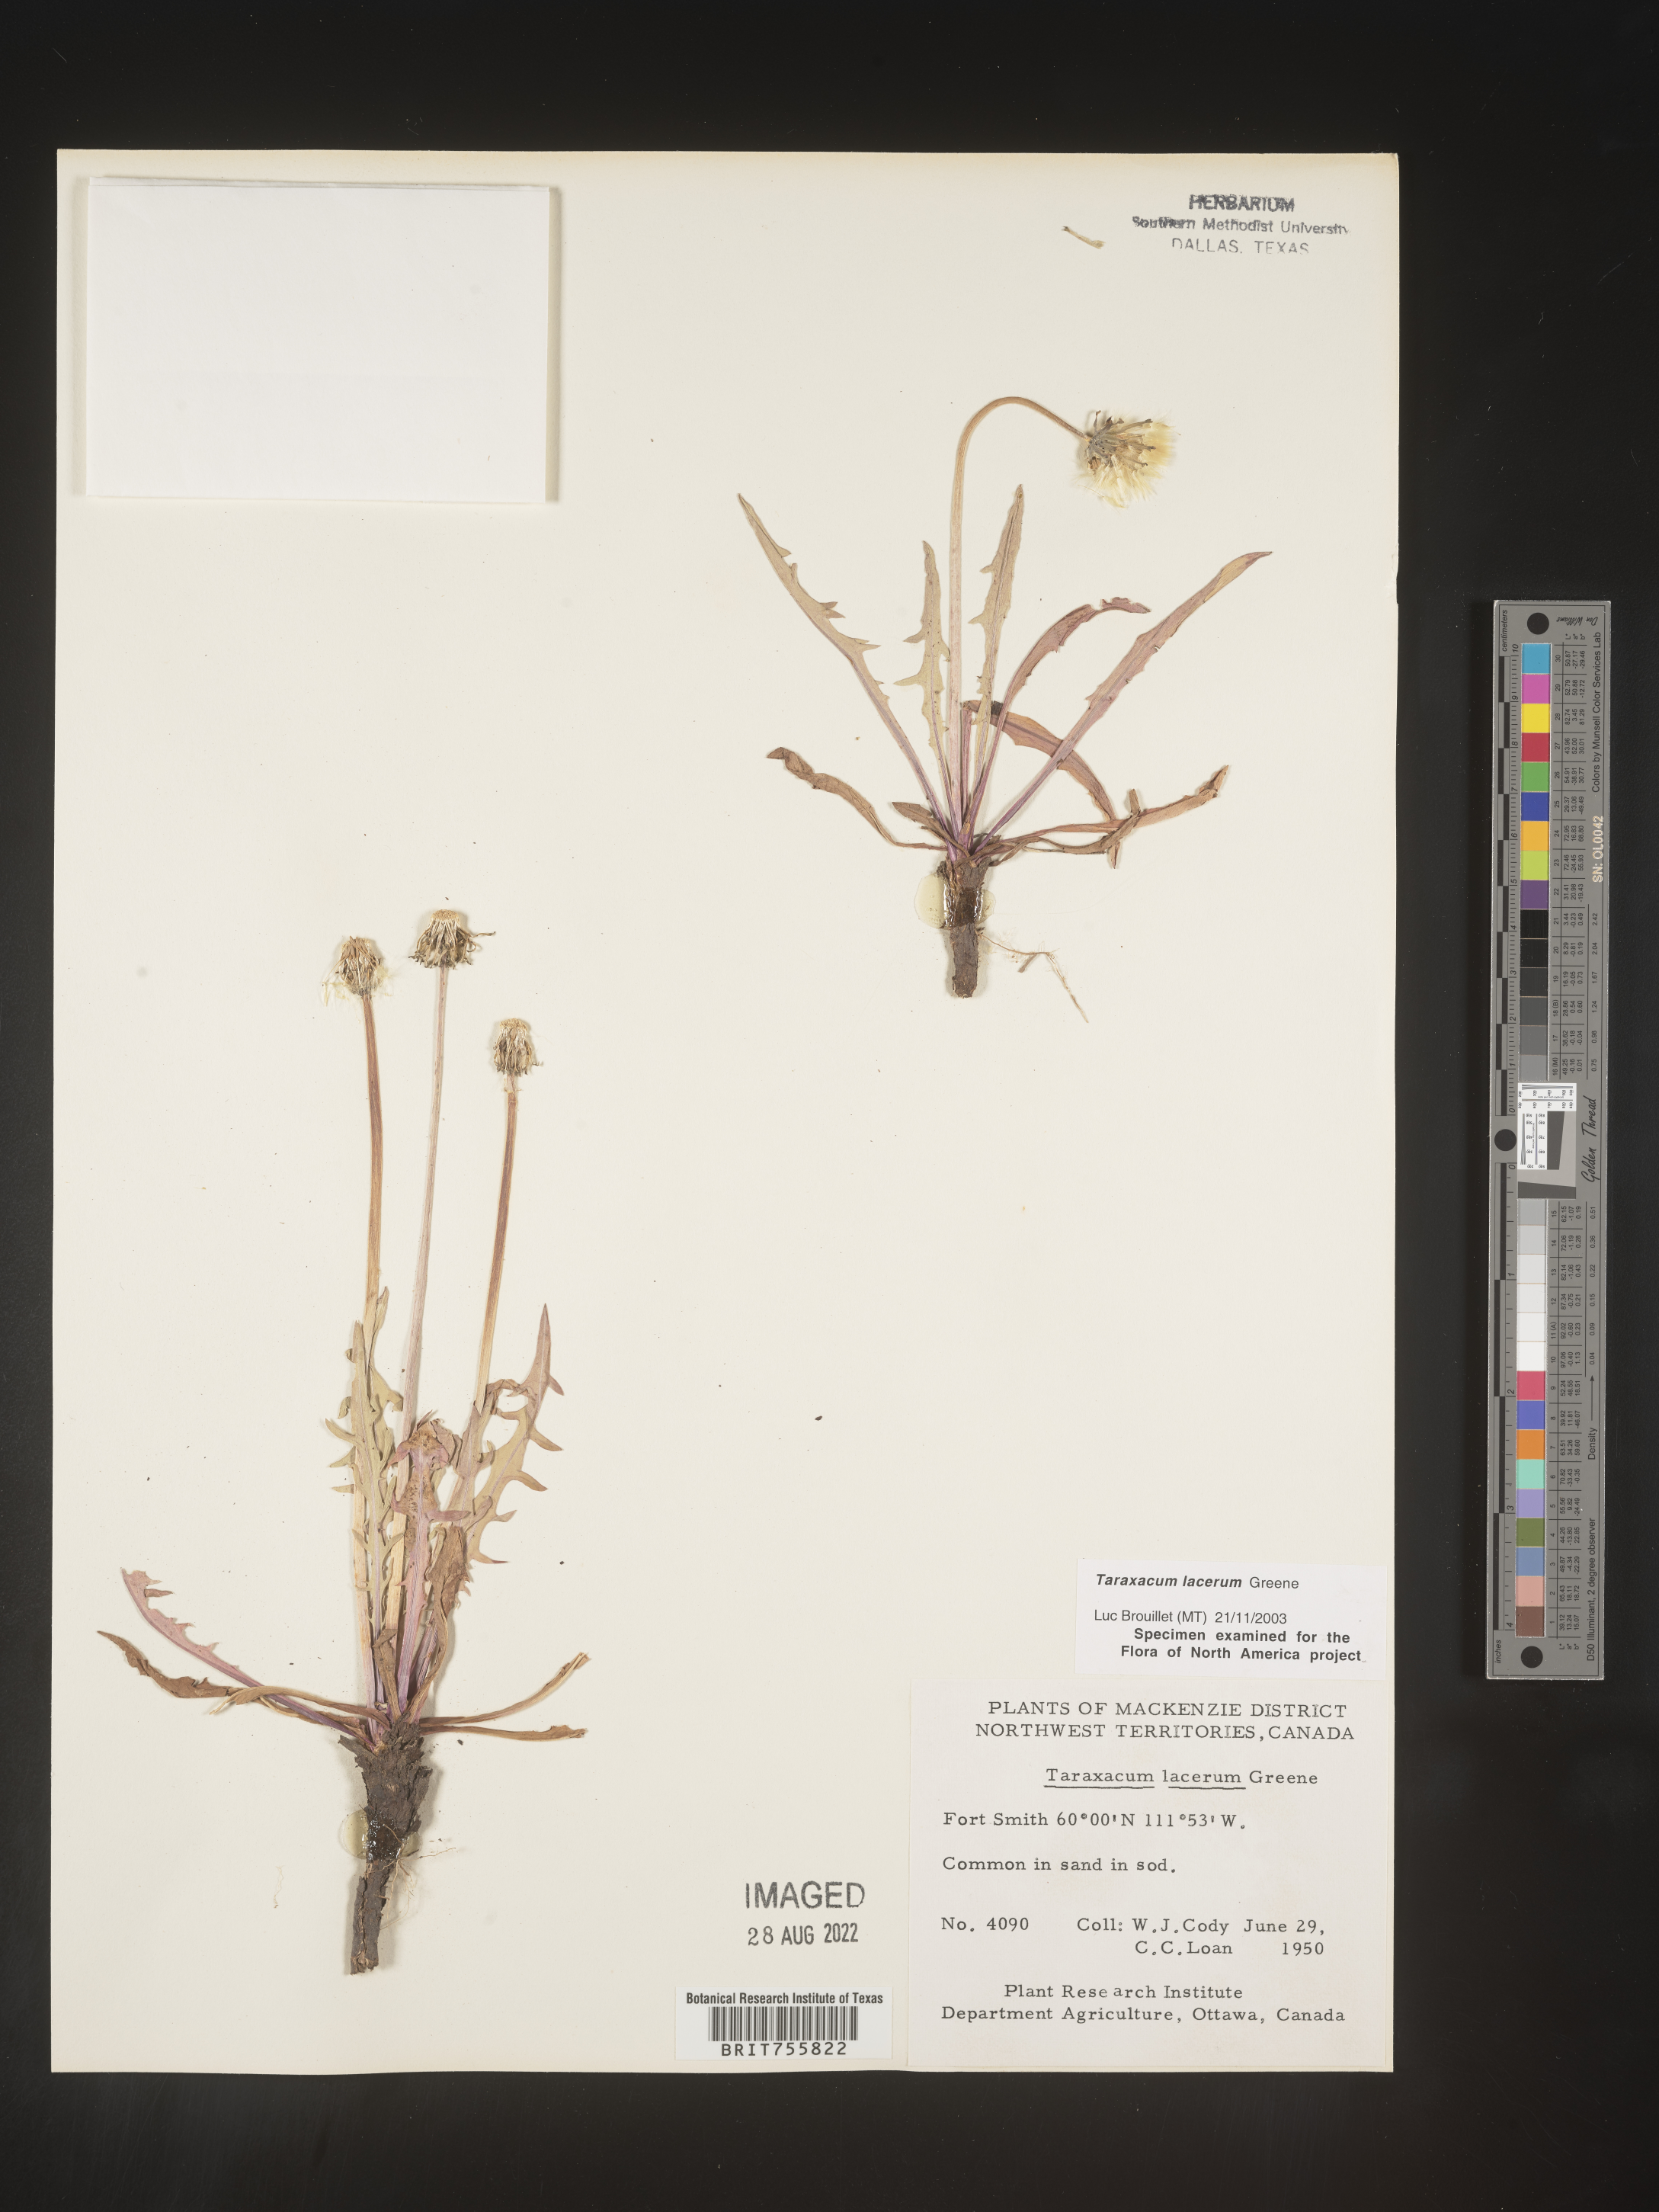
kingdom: Plantae
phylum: Tracheophyta
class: Magnoliopsida
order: Asterales
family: Asteraceae
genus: Taraxacum
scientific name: Taraxacum
